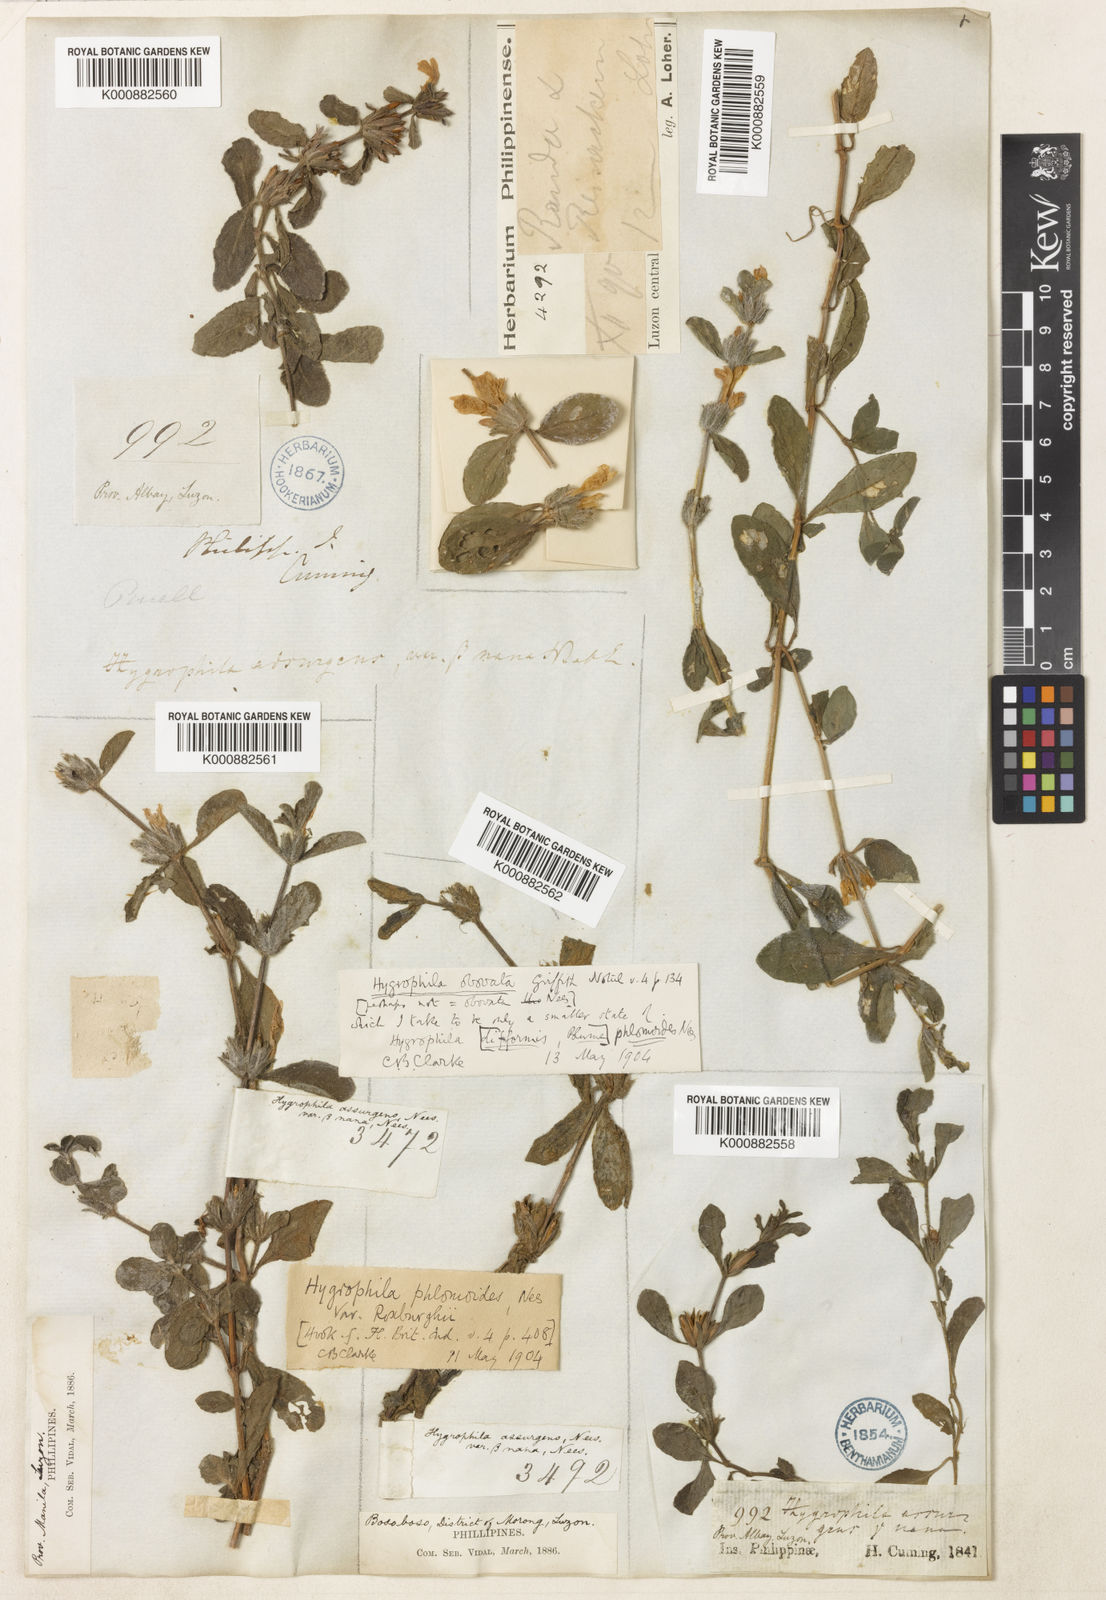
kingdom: Plantae
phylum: Tracheophyta
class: Magnoliopsida
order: Lamiales
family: Acanthaceae
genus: Hygrophila
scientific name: Hygrophila ringens
